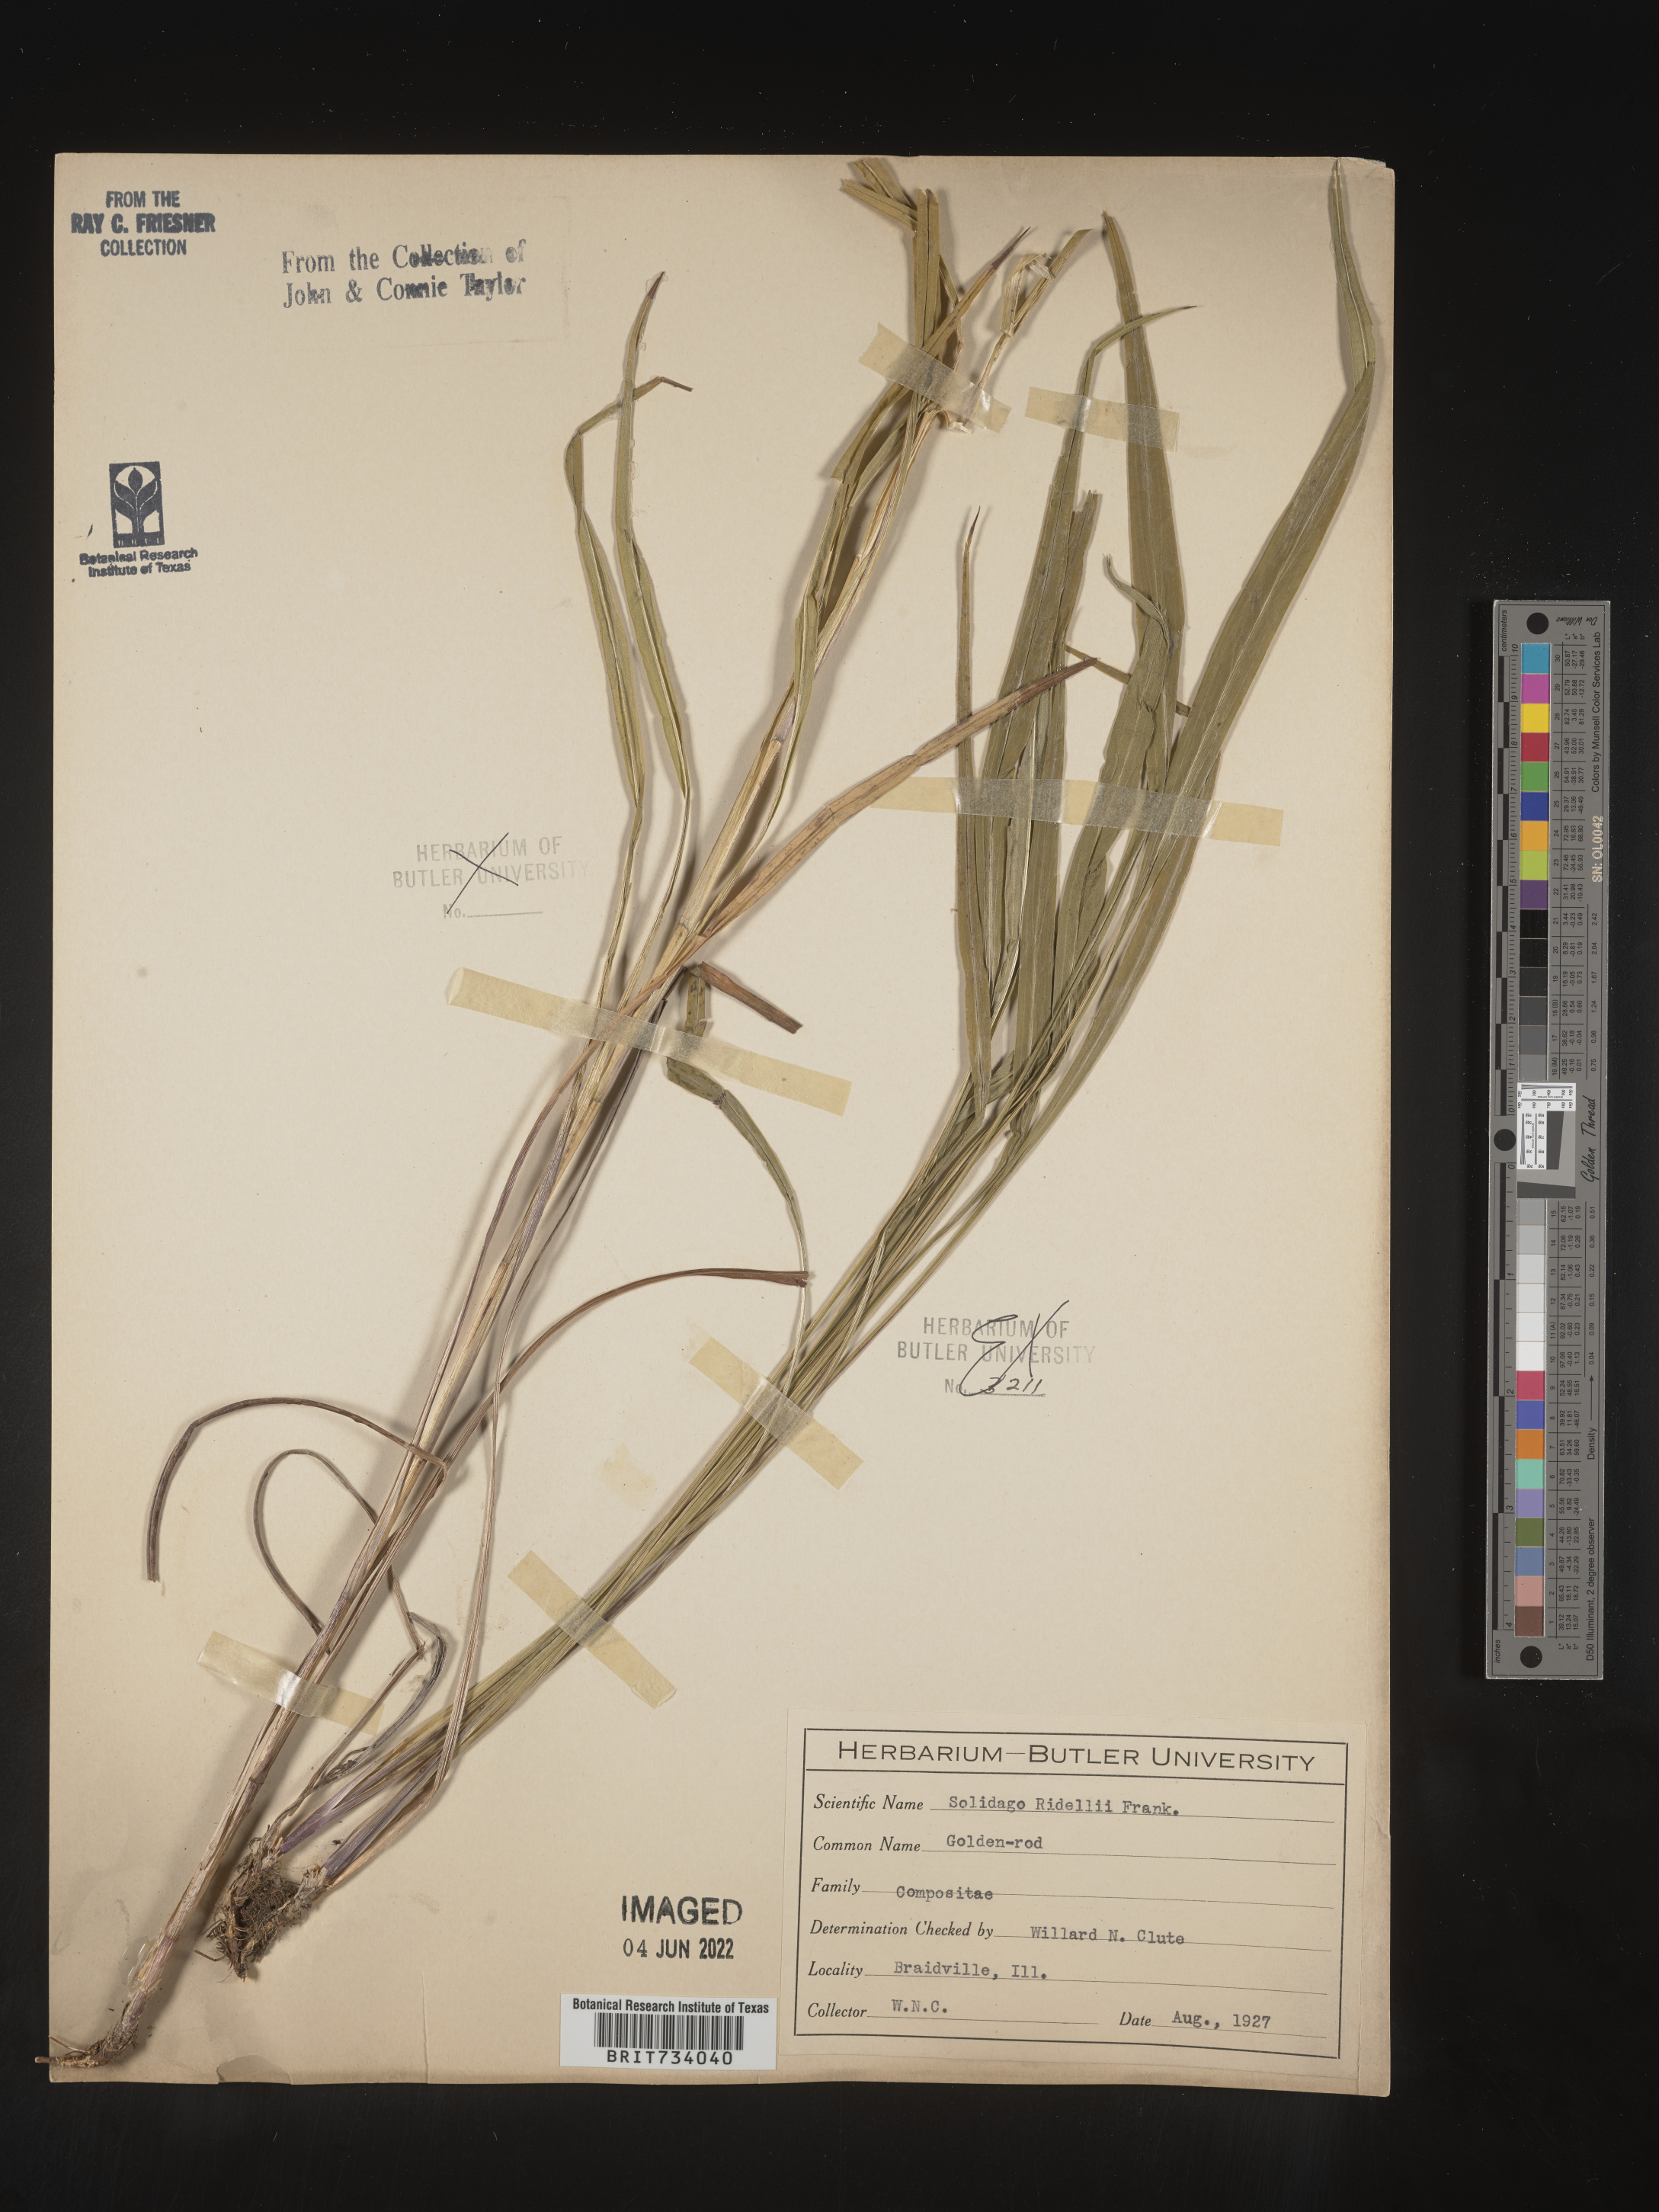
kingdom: Plantae
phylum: Tracheophyta
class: Magnoliopsida
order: Asterales
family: Asteraceae
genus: Solidago
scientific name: Solidago riddellii
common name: Riddell's goldenrod
